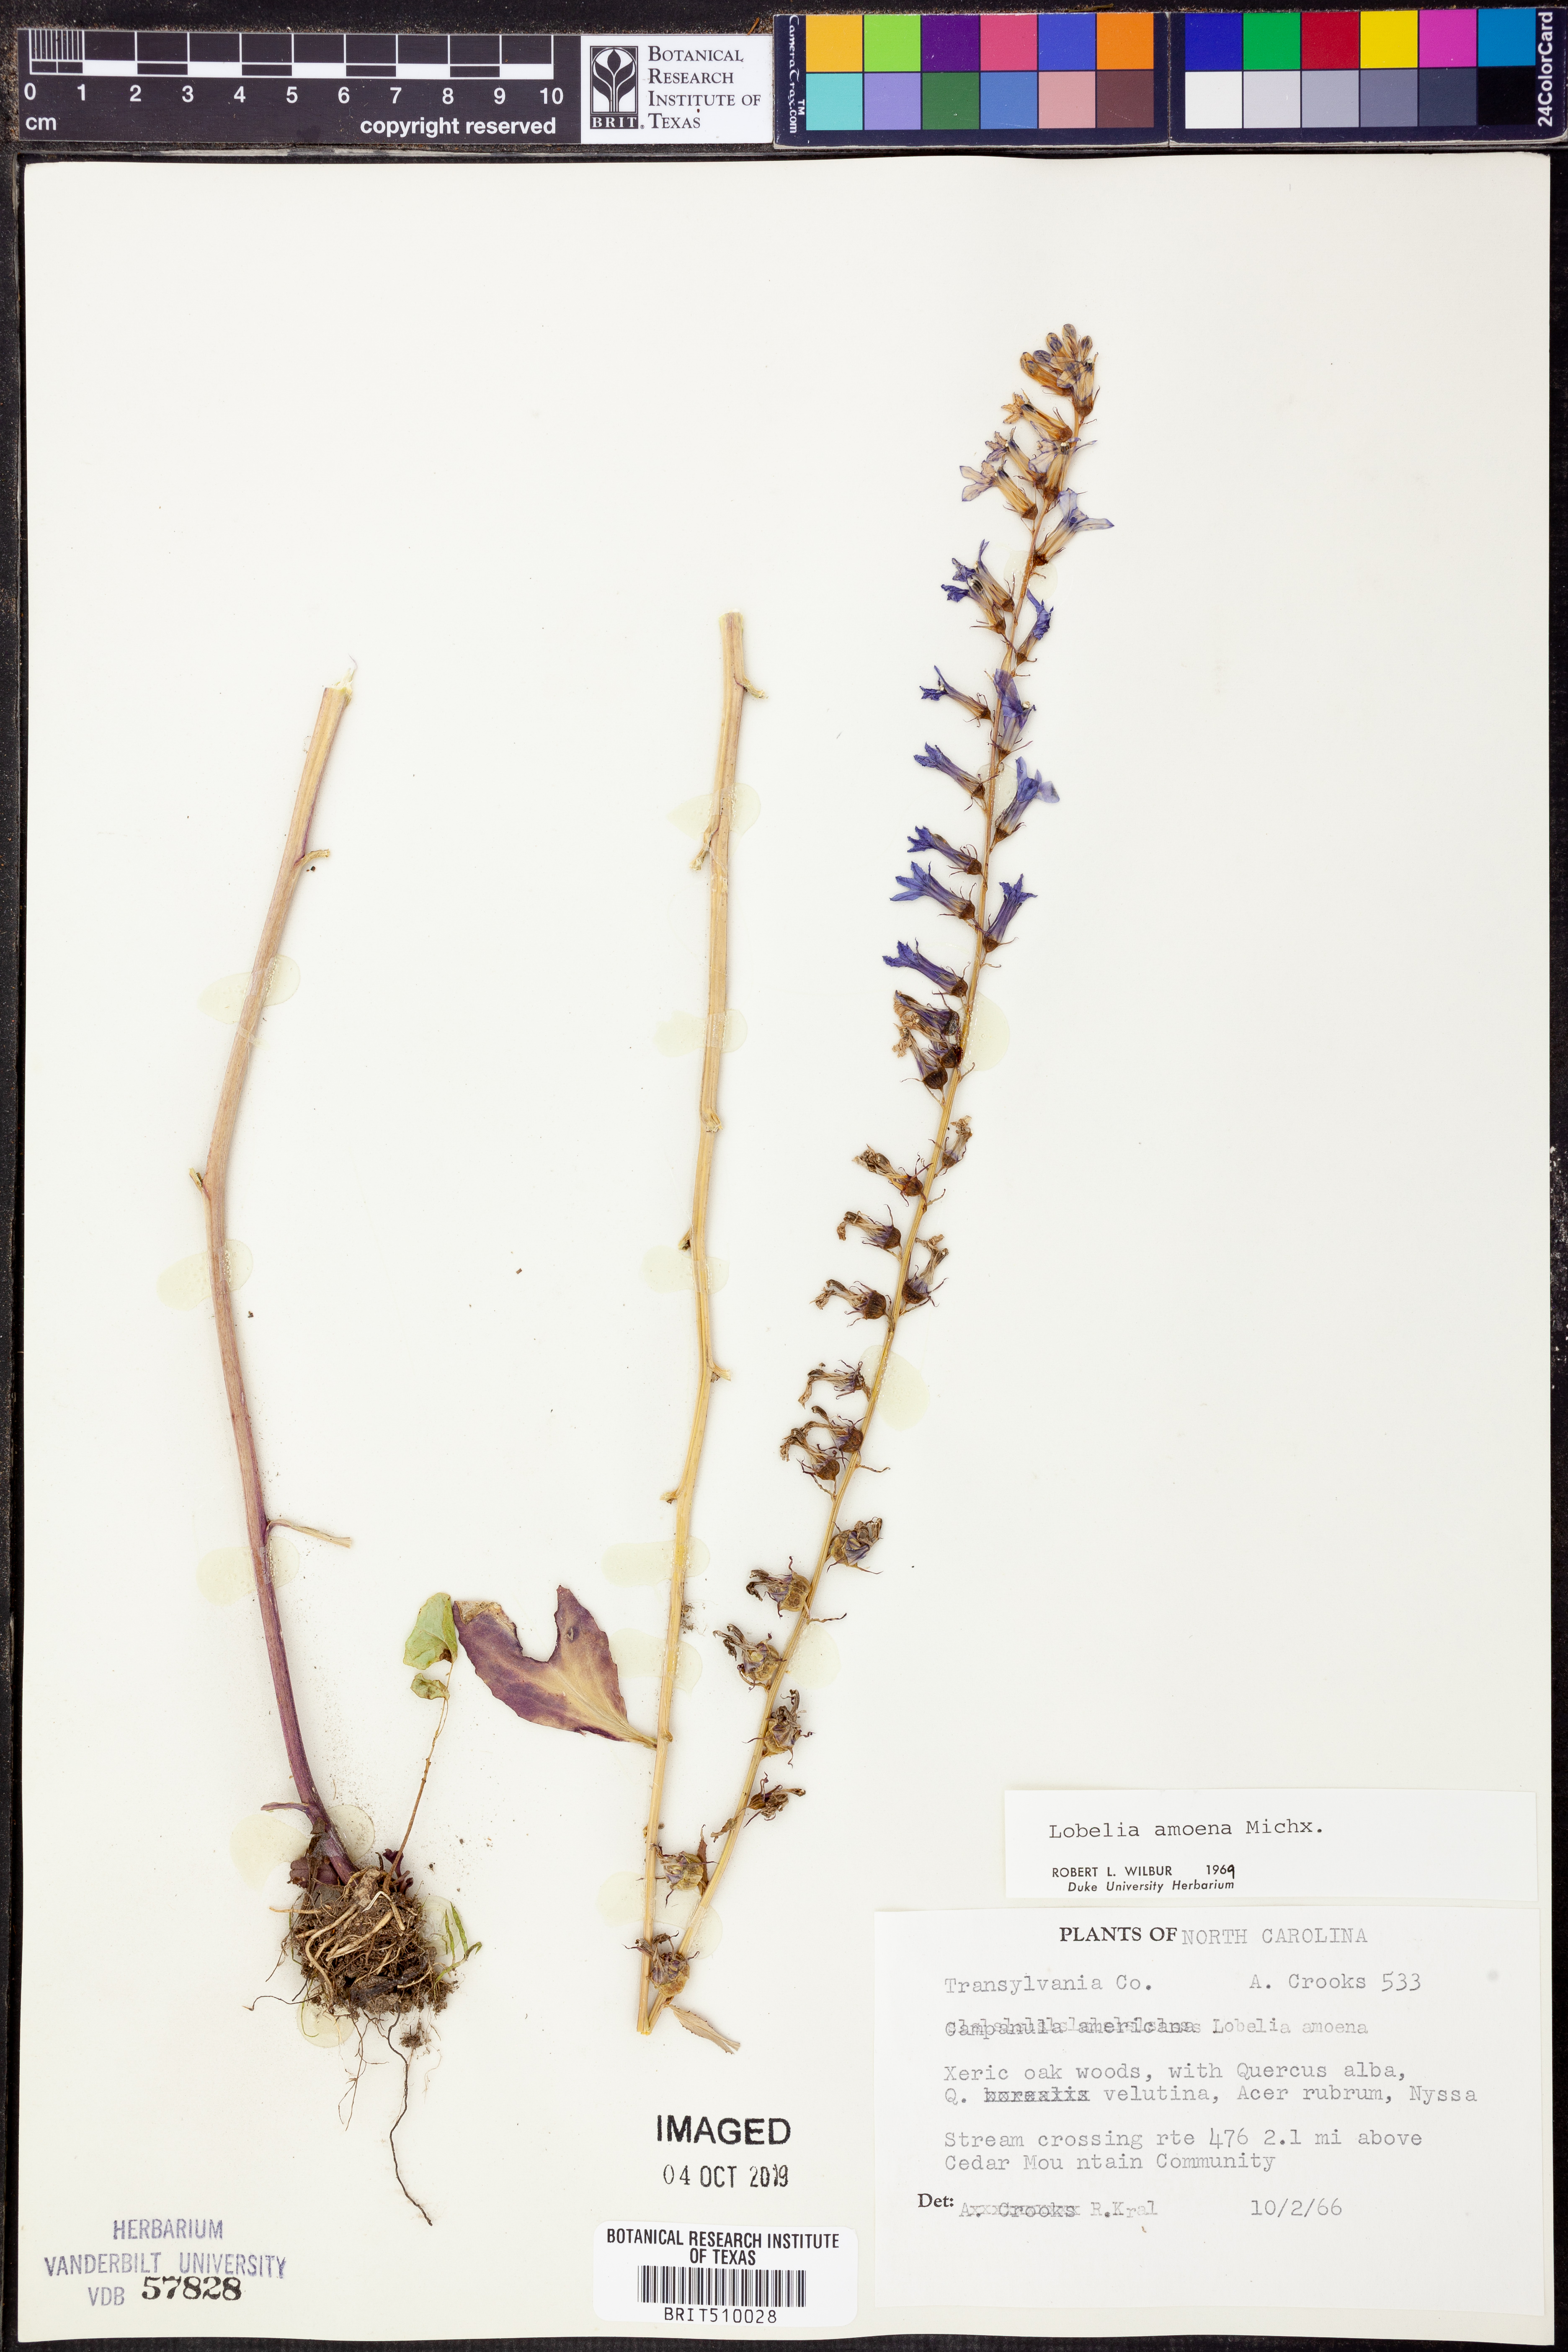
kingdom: Plantae
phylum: Tracheophyta
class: Magnoliopsida
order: Asterales
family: Campanulaceae
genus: Lobelia
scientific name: Lobelia amoena
